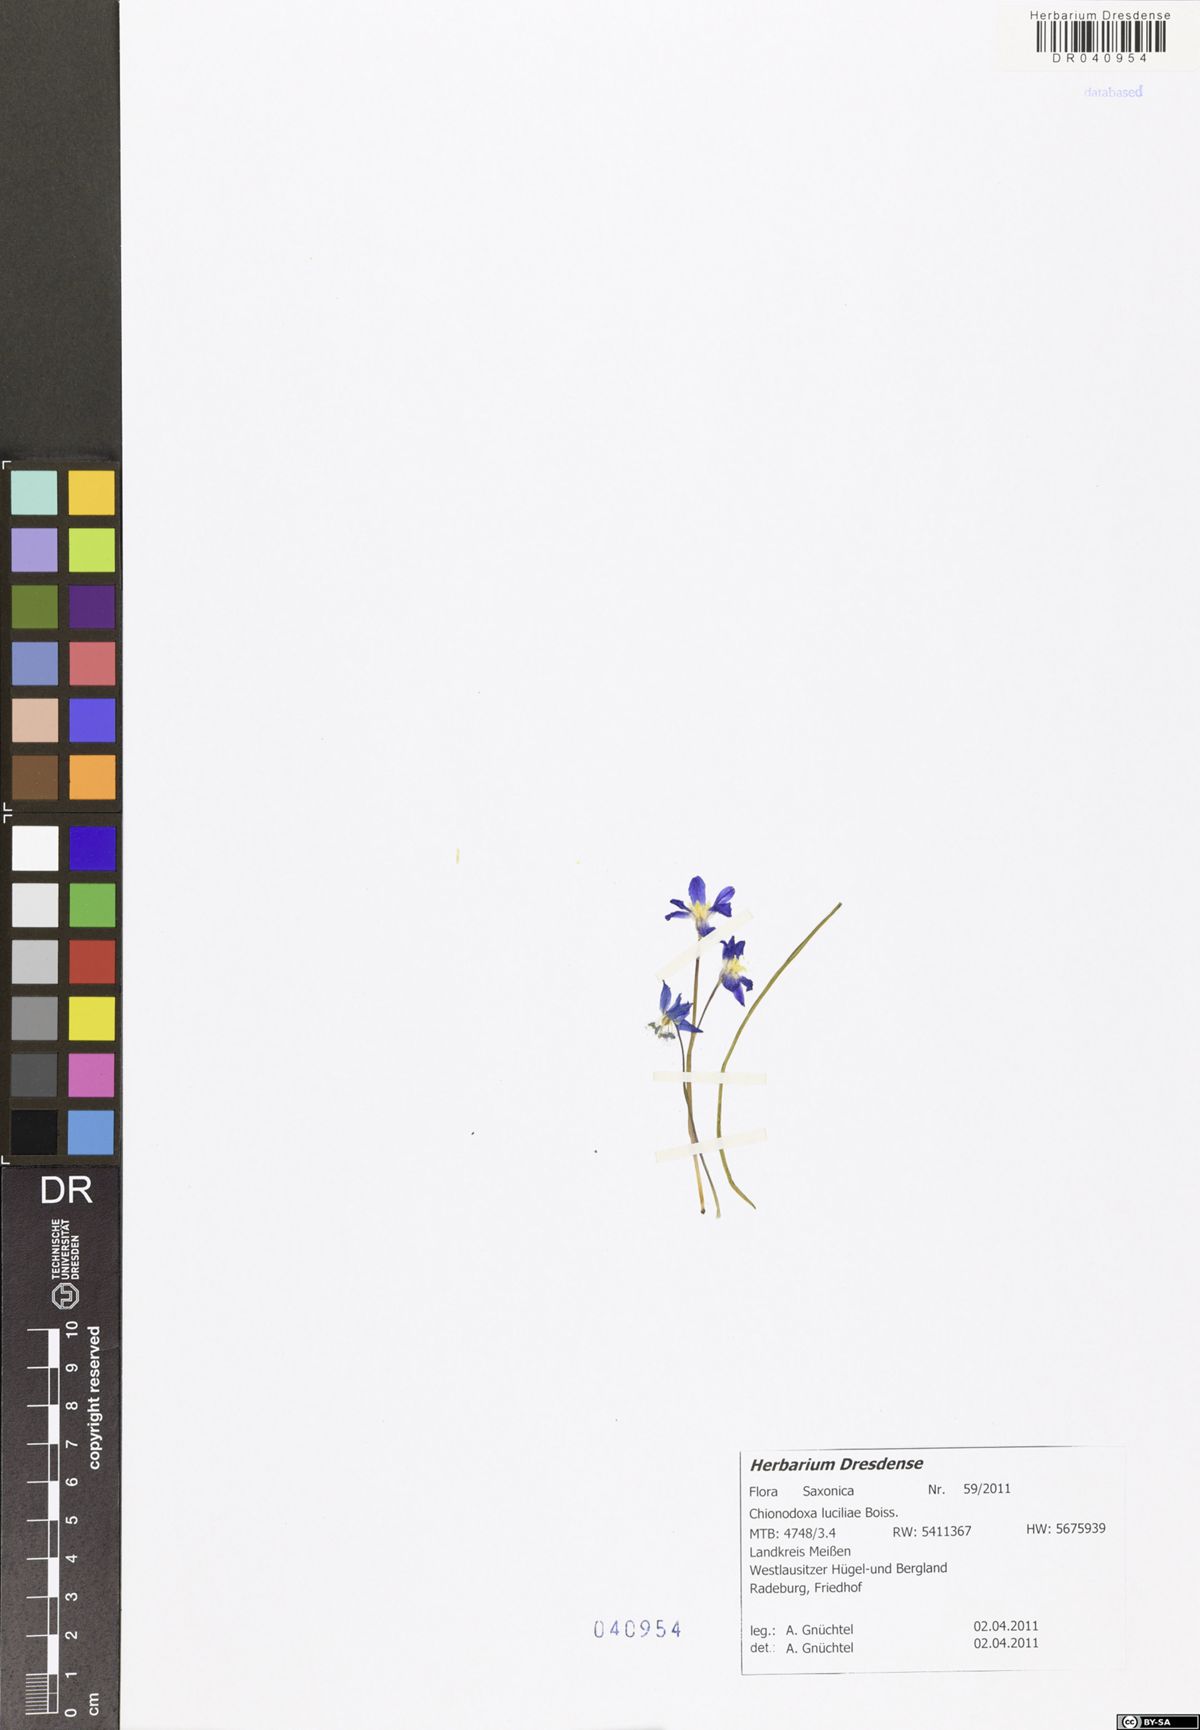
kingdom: Plantae
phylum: Tracheophyta
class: Liliopsida
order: Asparagales
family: Asparagaceae
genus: Scilla
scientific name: Scilla luciliae
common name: Boissier's glory-of-the-snow
